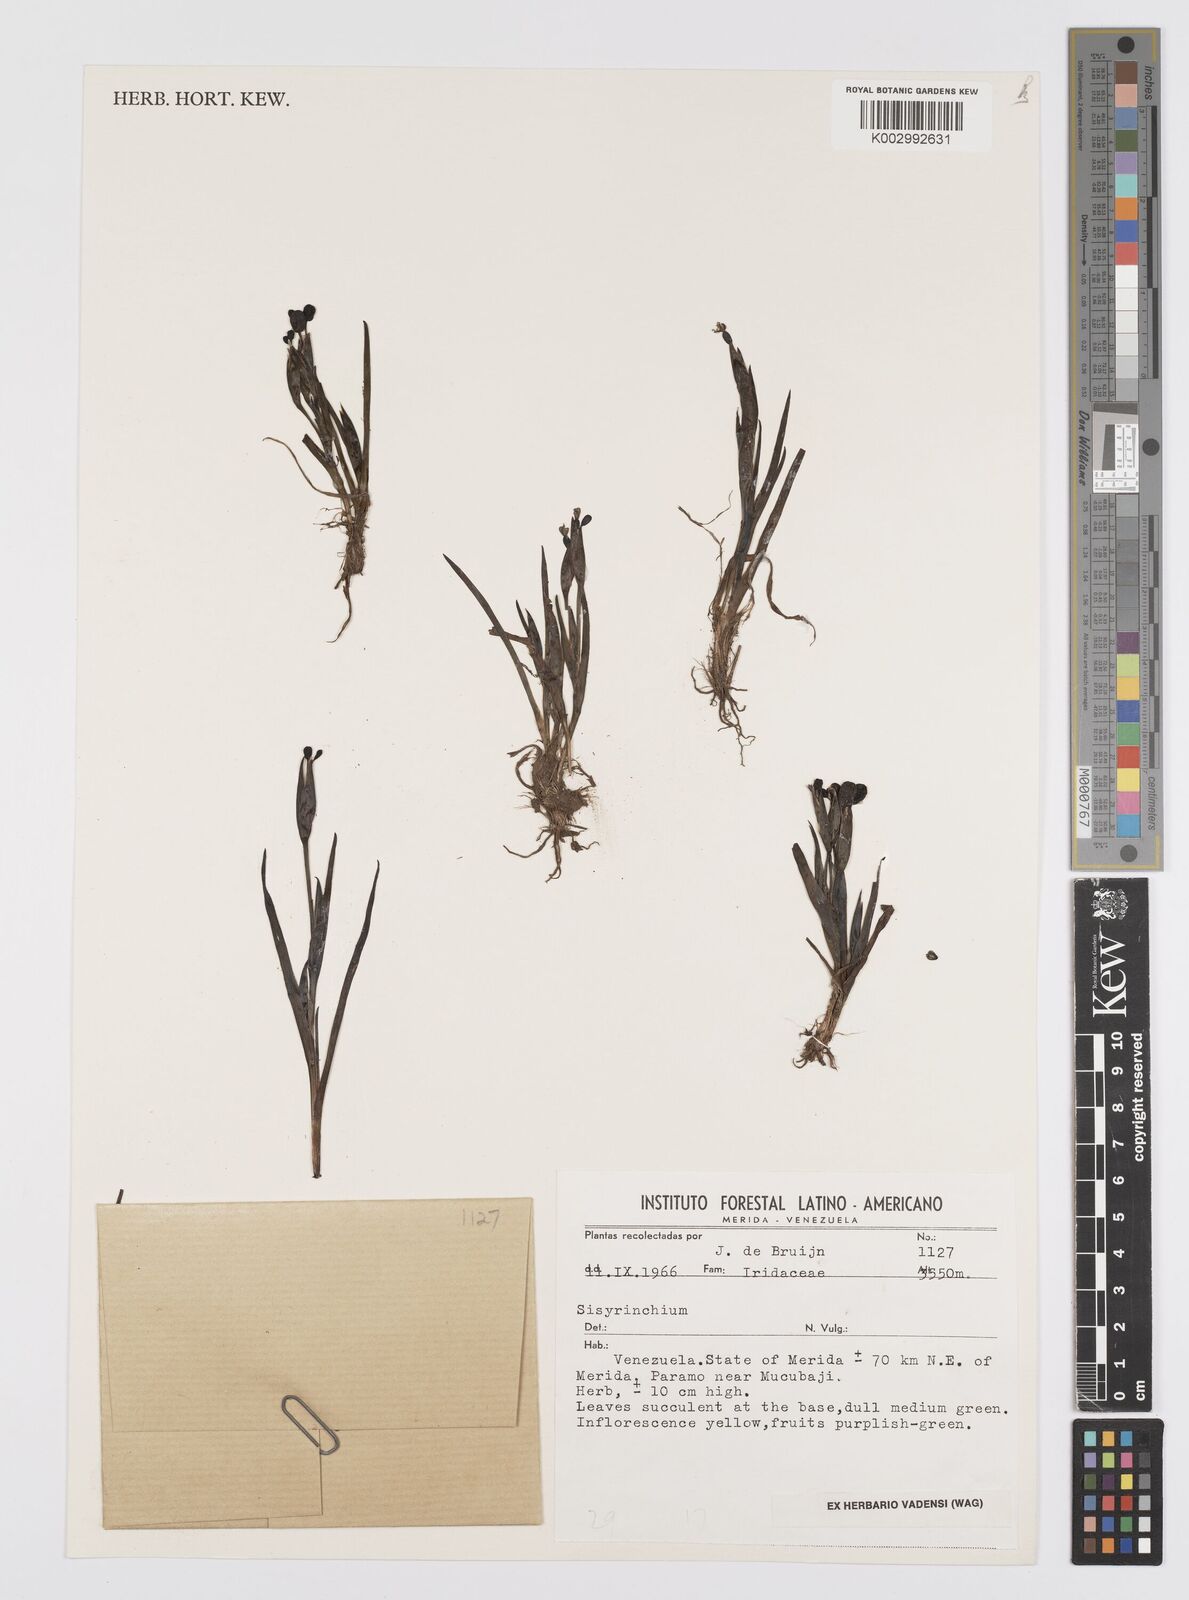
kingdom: Plantae
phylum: Tracheophyta
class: Liliopsida
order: Asparagales
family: Iridaceae
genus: Sisyrinchium
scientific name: Sisyrinchium
